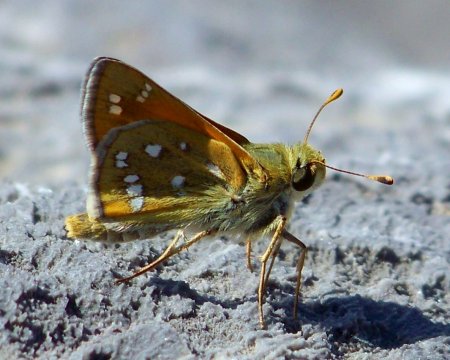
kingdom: Animalia
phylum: Arthropoda
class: Insecta
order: Lepidoptera
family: Hesperiidae
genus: Hesperia
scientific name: Hesperia pahaska
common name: Pahaska Skipper
